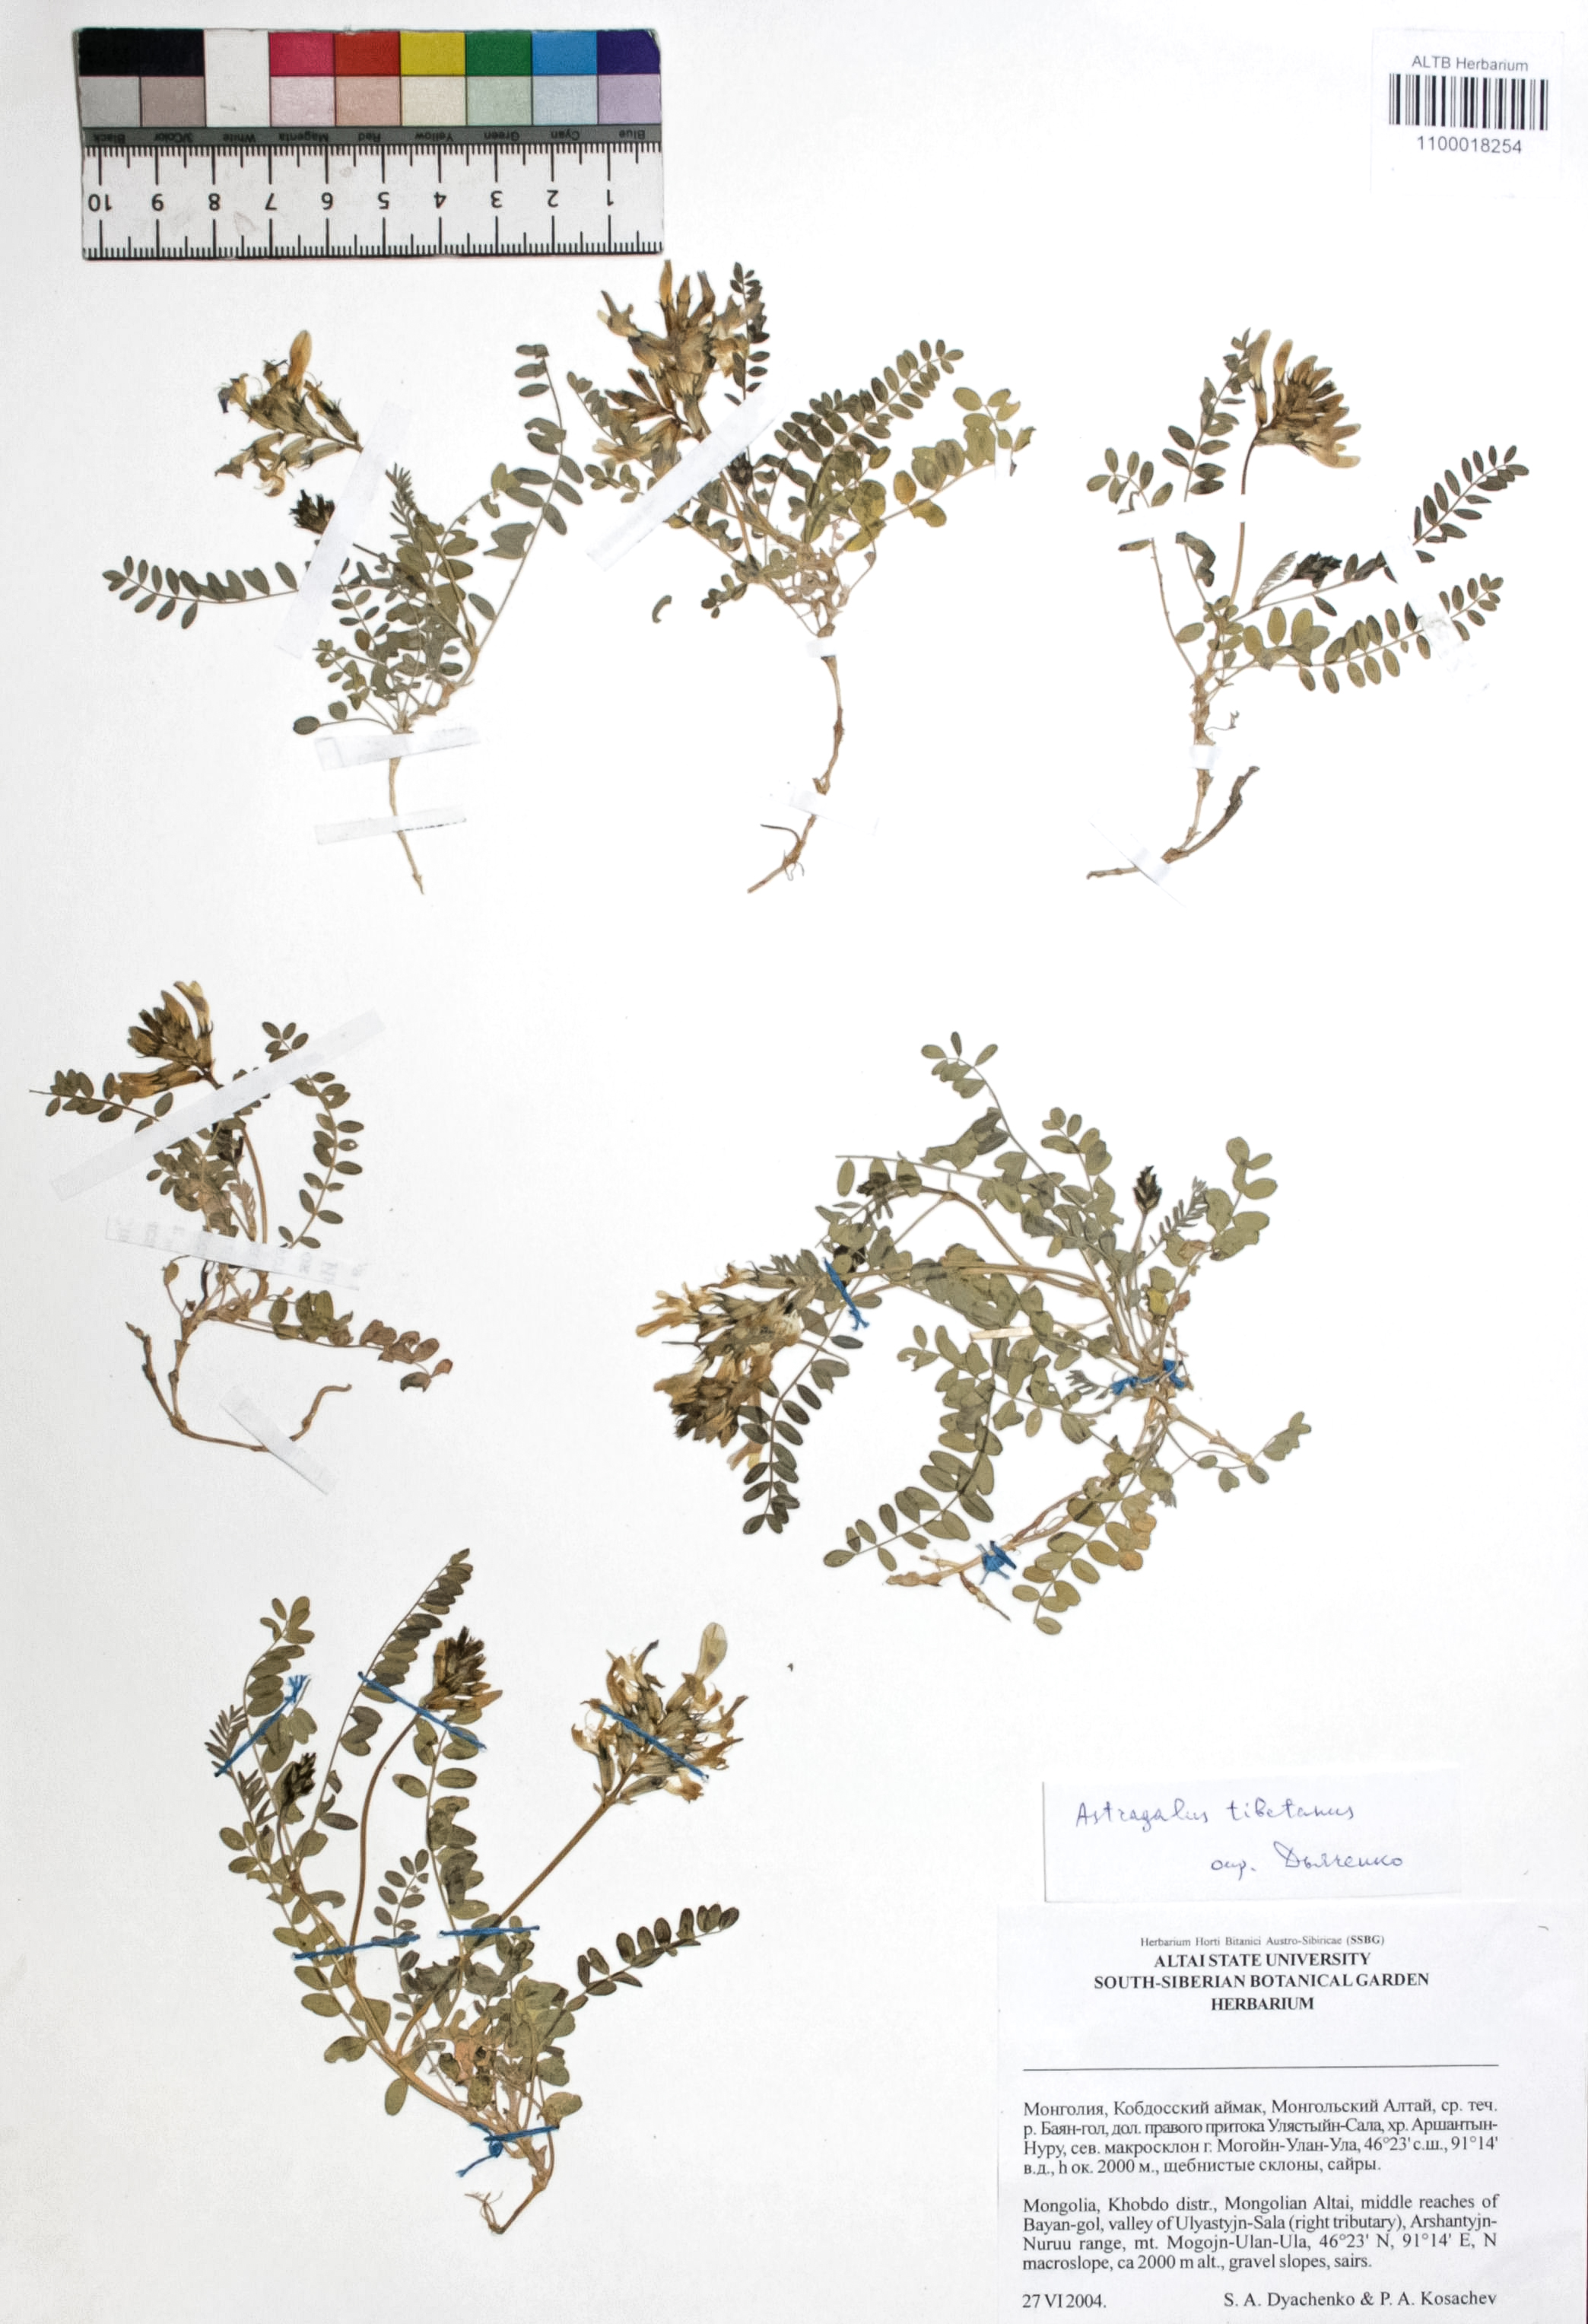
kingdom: Plantae
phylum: Tracheophyta
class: Magnoliopsida
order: Fabales
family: Fabaceae
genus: Astragalus
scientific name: Astragalus tibetanus
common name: Tibet milkvetch
